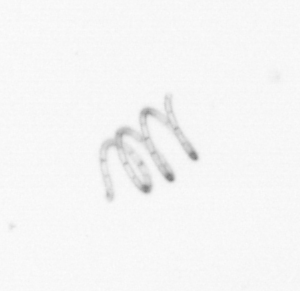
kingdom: Chromista
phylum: Ochrophyta
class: Bacillariophyceae
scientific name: Bacillariophyceae
